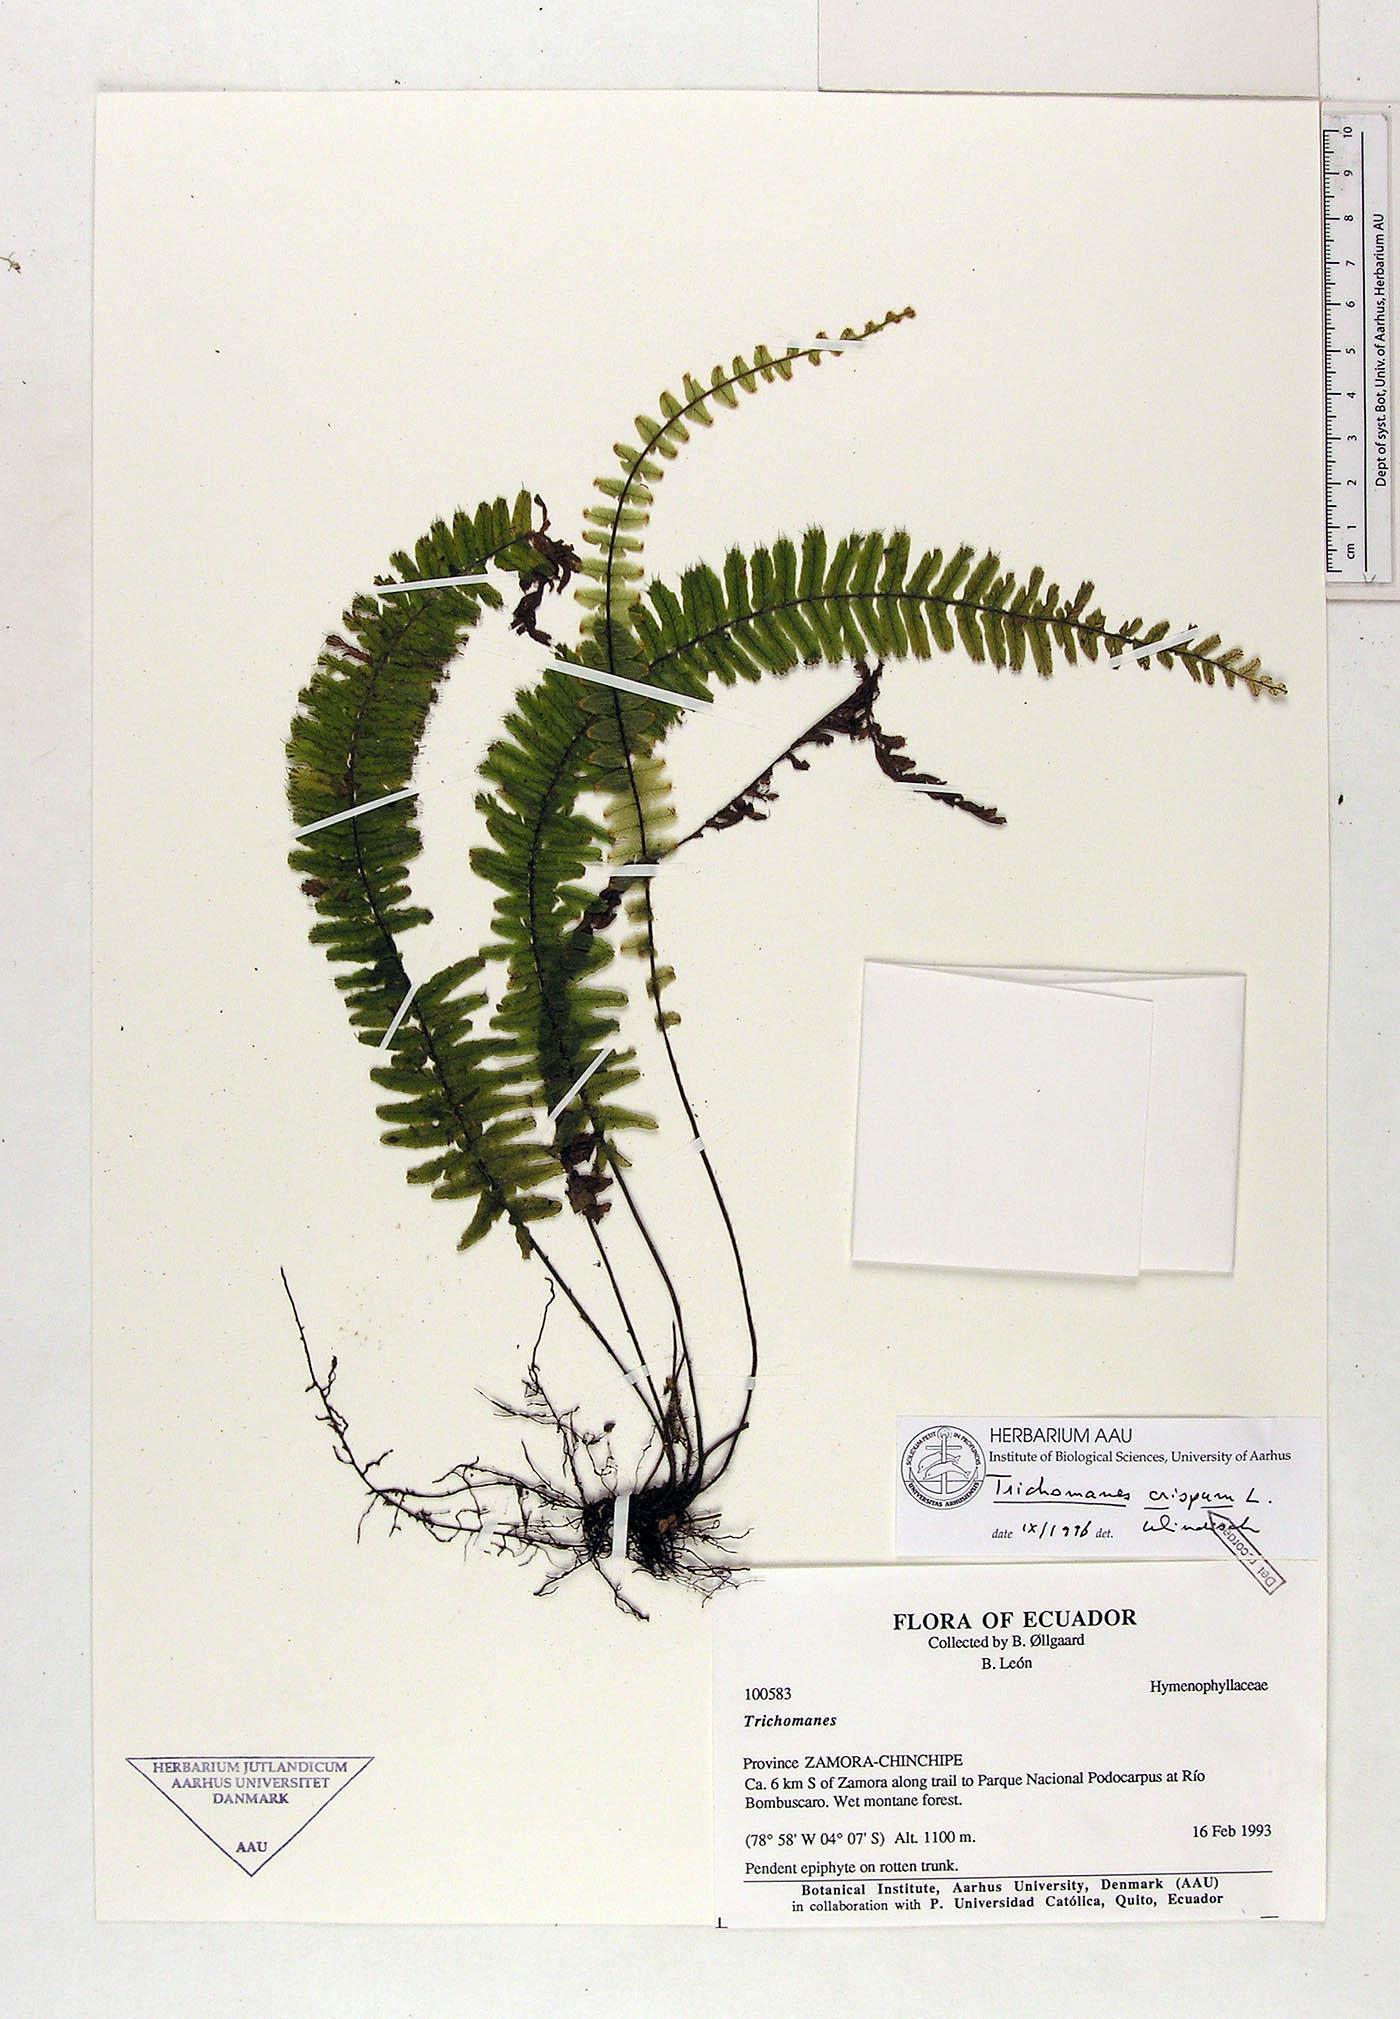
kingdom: Plantae
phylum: Tracheophyta
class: Polypodiopsida
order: Hymenophyllales
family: Hymenophyllaceae
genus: Trichomanes
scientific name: Trichomanes crispum
